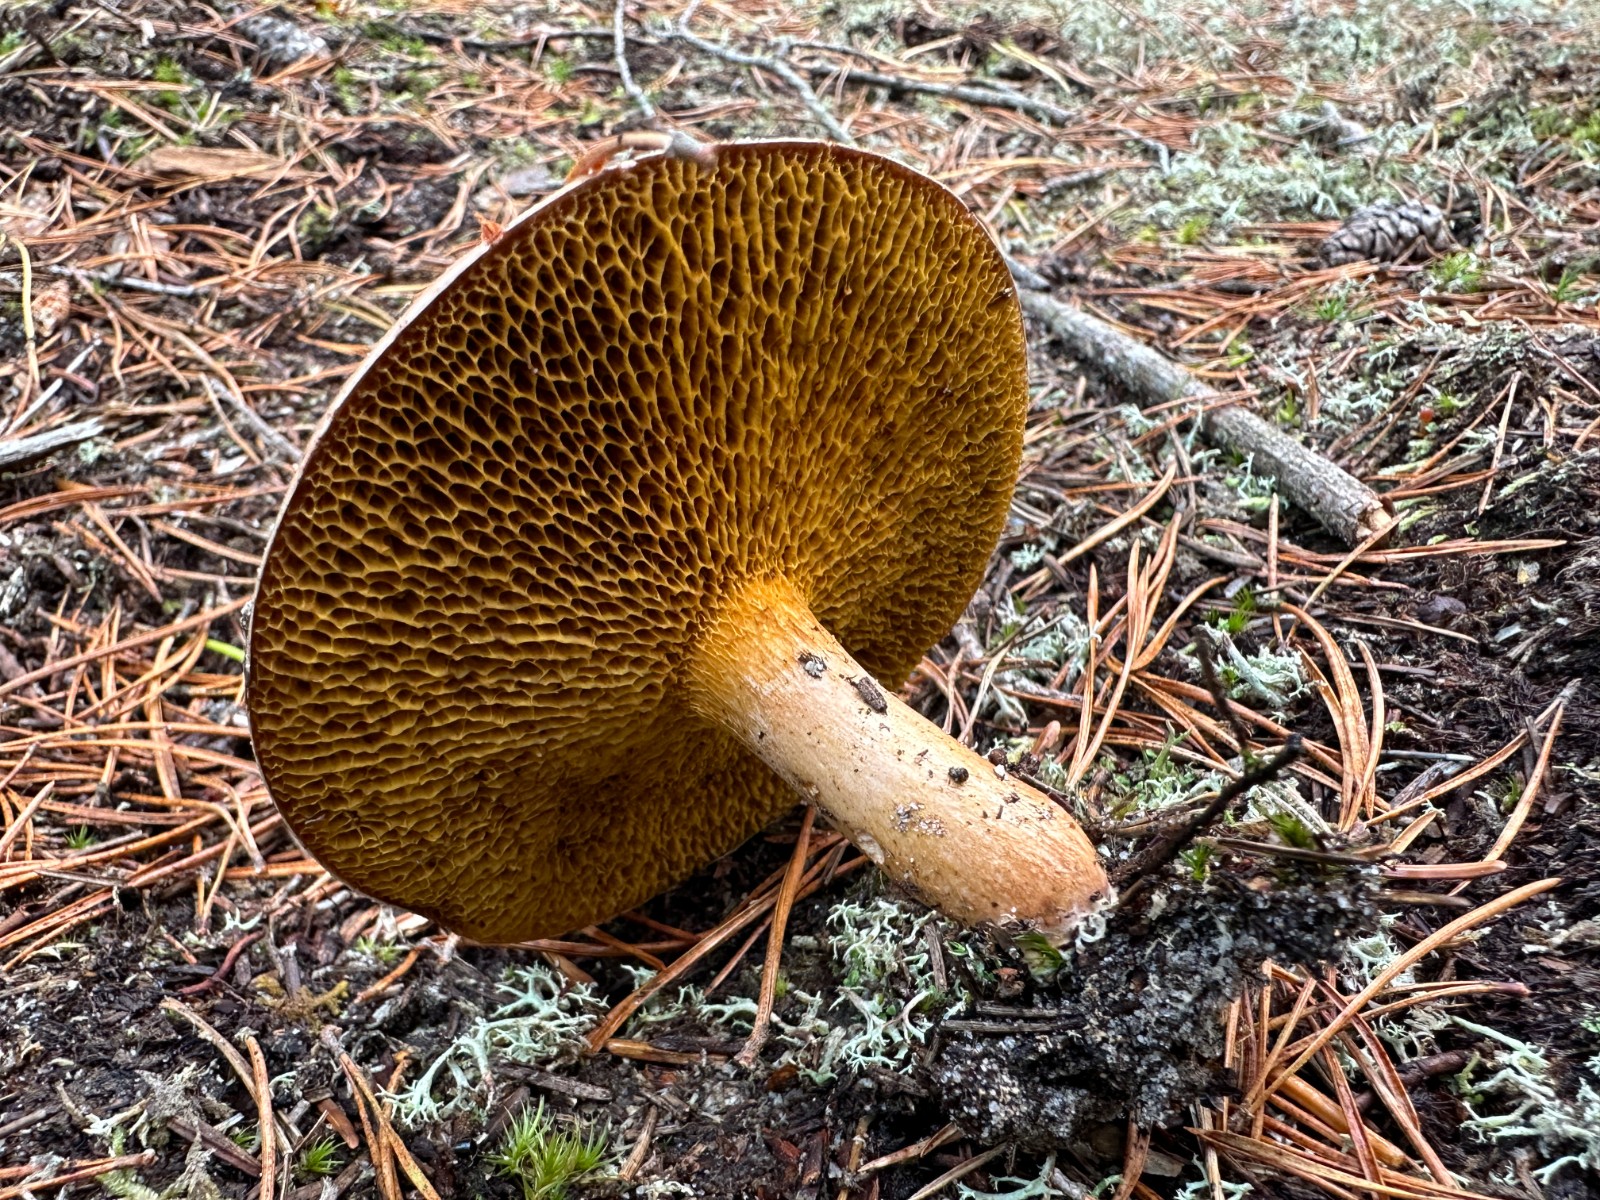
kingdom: Fungi
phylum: Basidiomycota
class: Agaricomycetes
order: Boletales
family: Suillaceae
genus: Suillus
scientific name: Suillus bovinus
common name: grovporet slimrørhat
